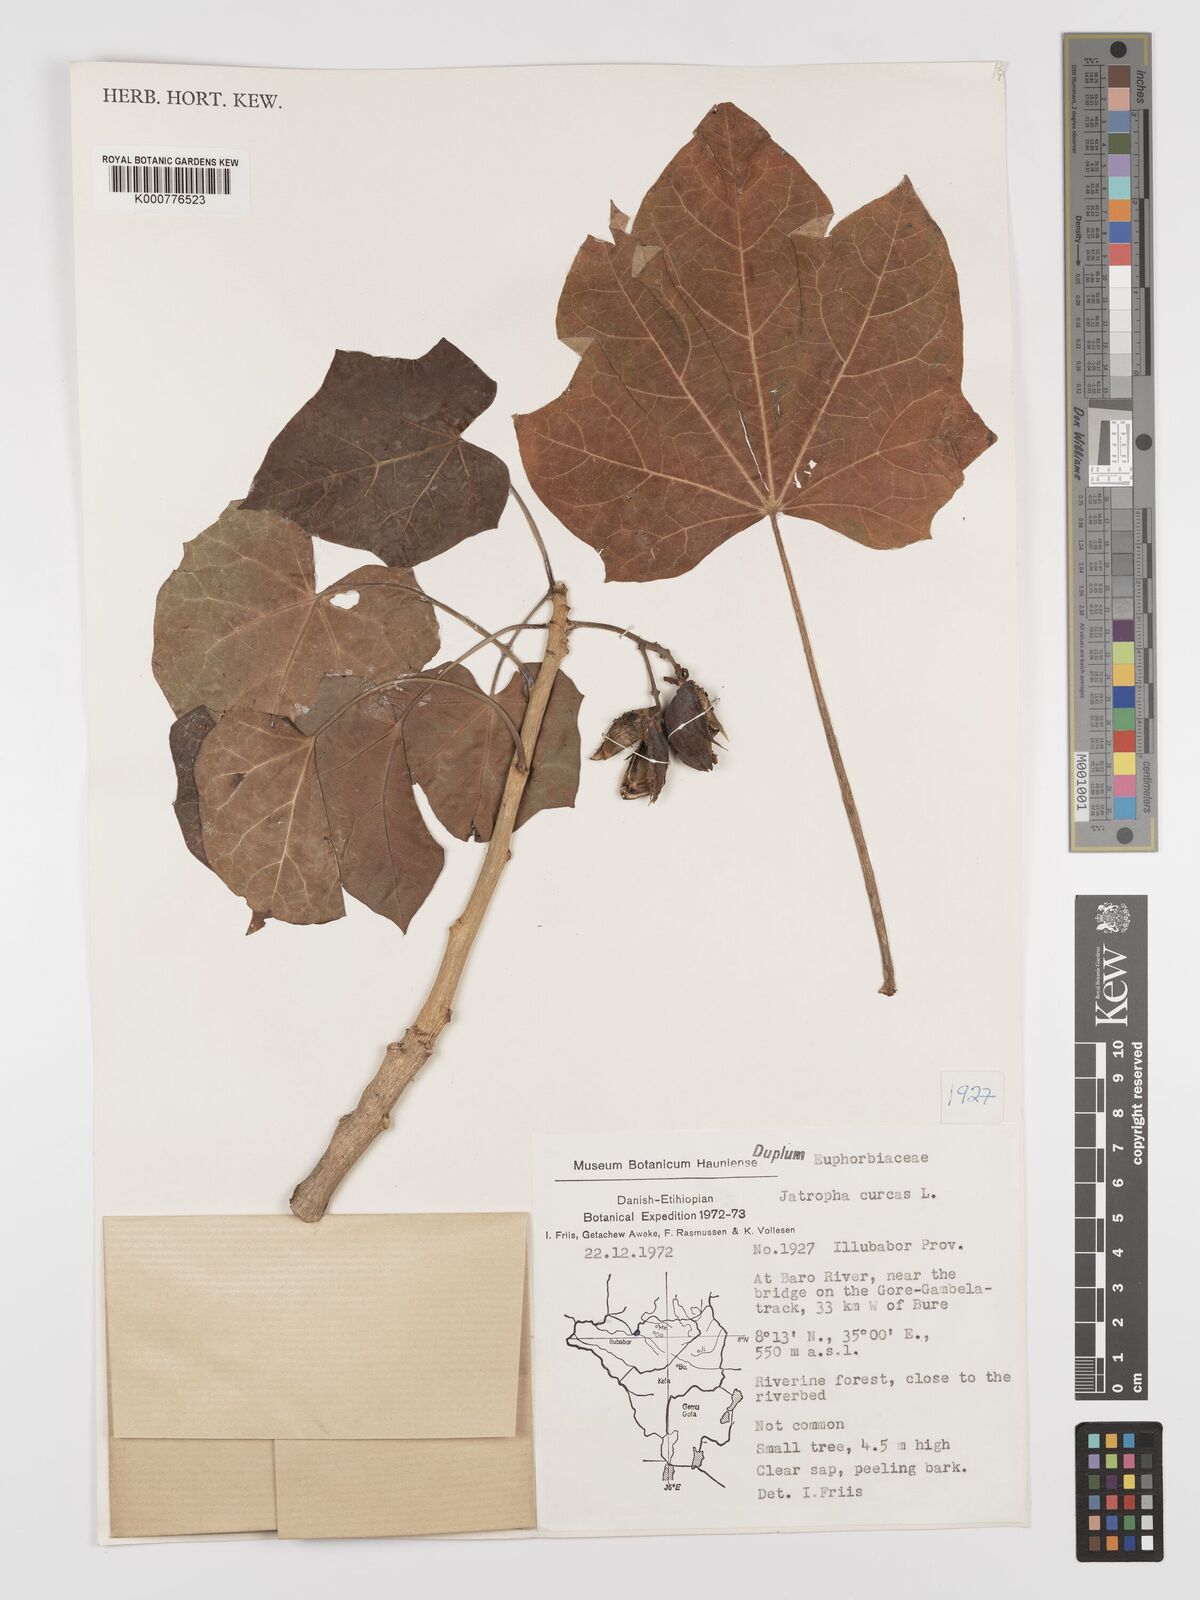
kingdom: Plantae
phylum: Tracheophyta
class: Magnoliopsida
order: Malpighiales
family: Euphorbiaceae
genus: Jatropha
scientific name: Jatropha curcas
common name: Barbados nut
